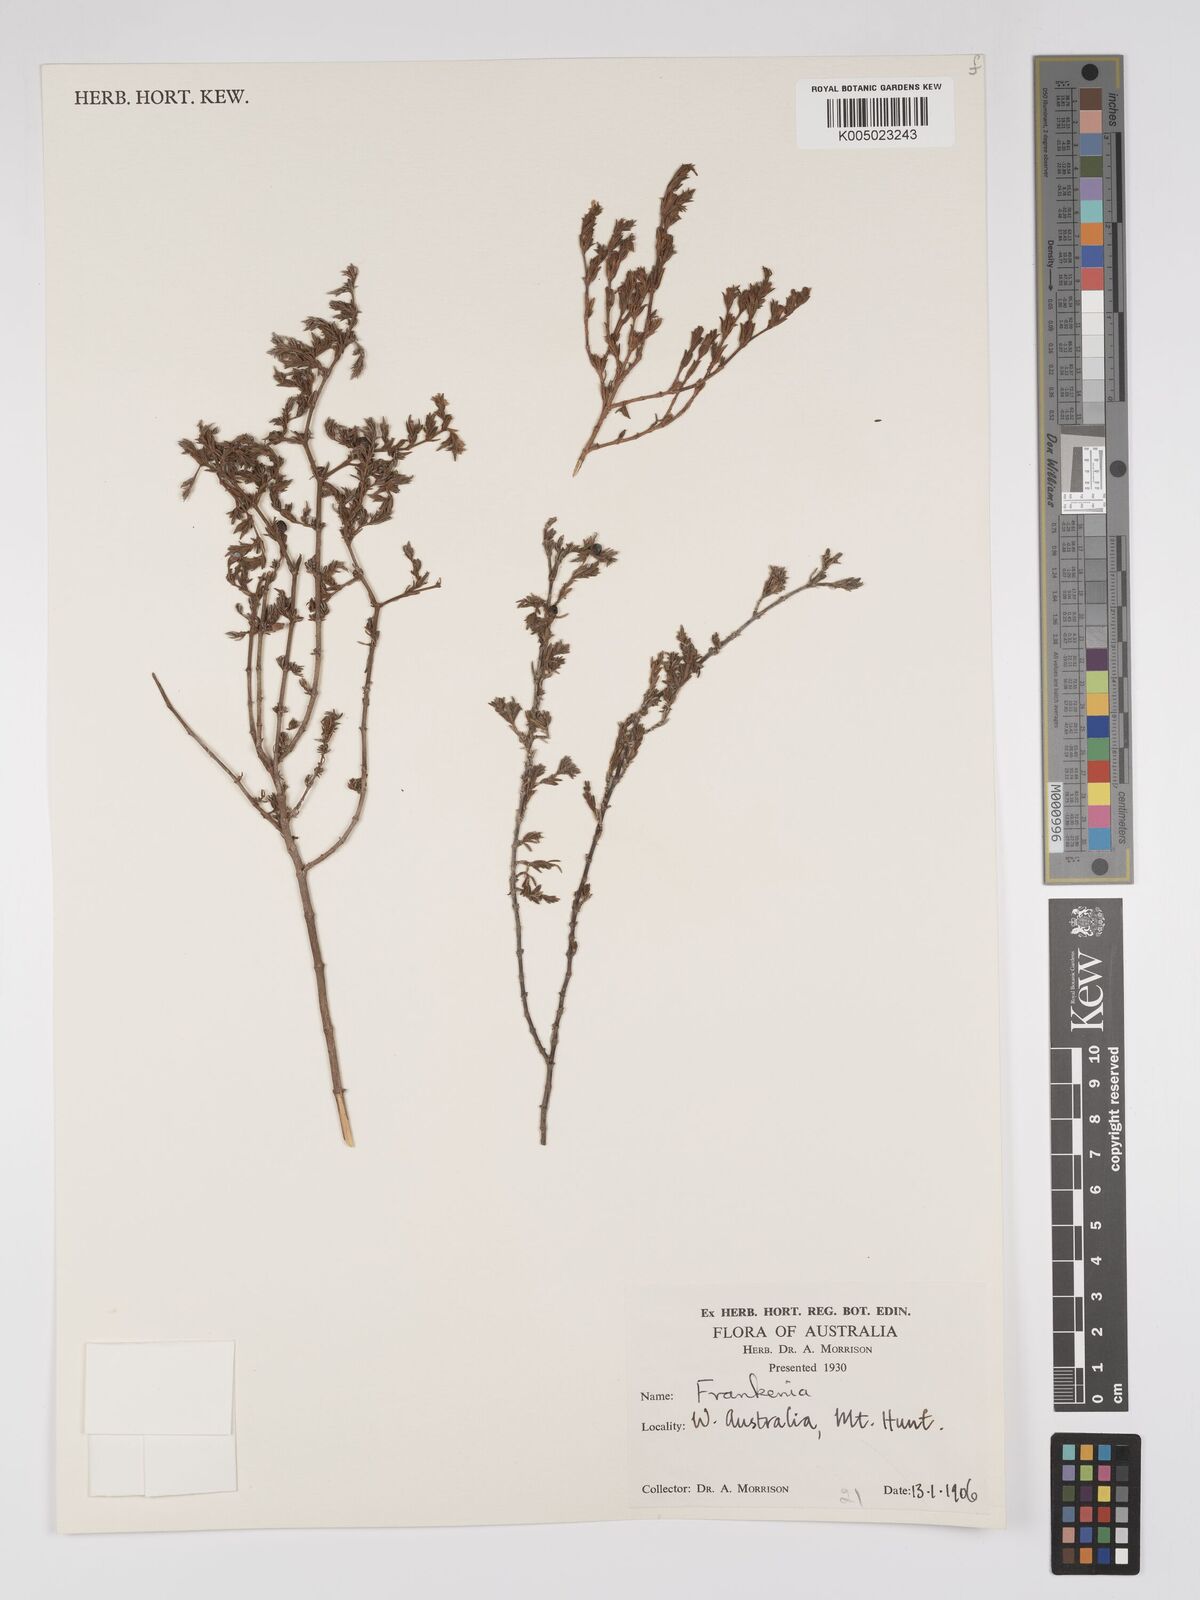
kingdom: Plantae
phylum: Tracheophyta
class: Magnoliopsida
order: Caryophyllales
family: Frankeniaceae
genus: Frankenia
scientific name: Frankenia
